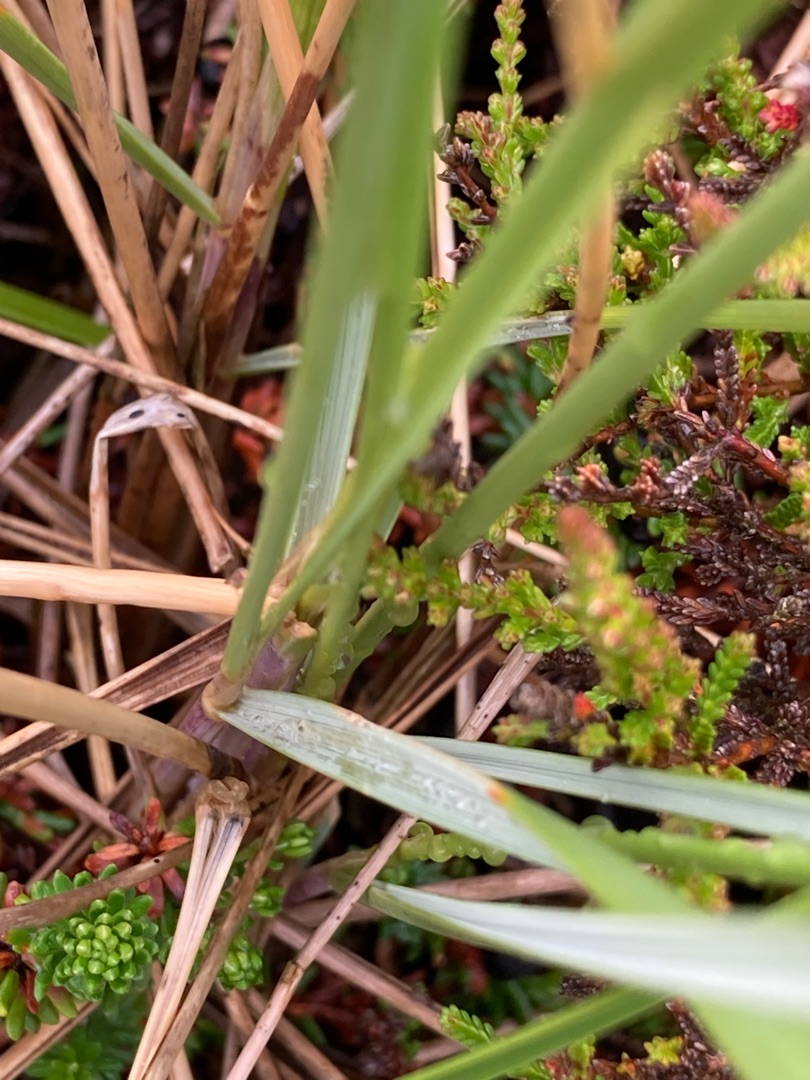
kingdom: Plantae
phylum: Tracheophyta
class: Liliopsida
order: Poales
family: Poaceae
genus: Calamagrostis
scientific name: Calamagrostis arenaria
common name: Sand-hjælme
